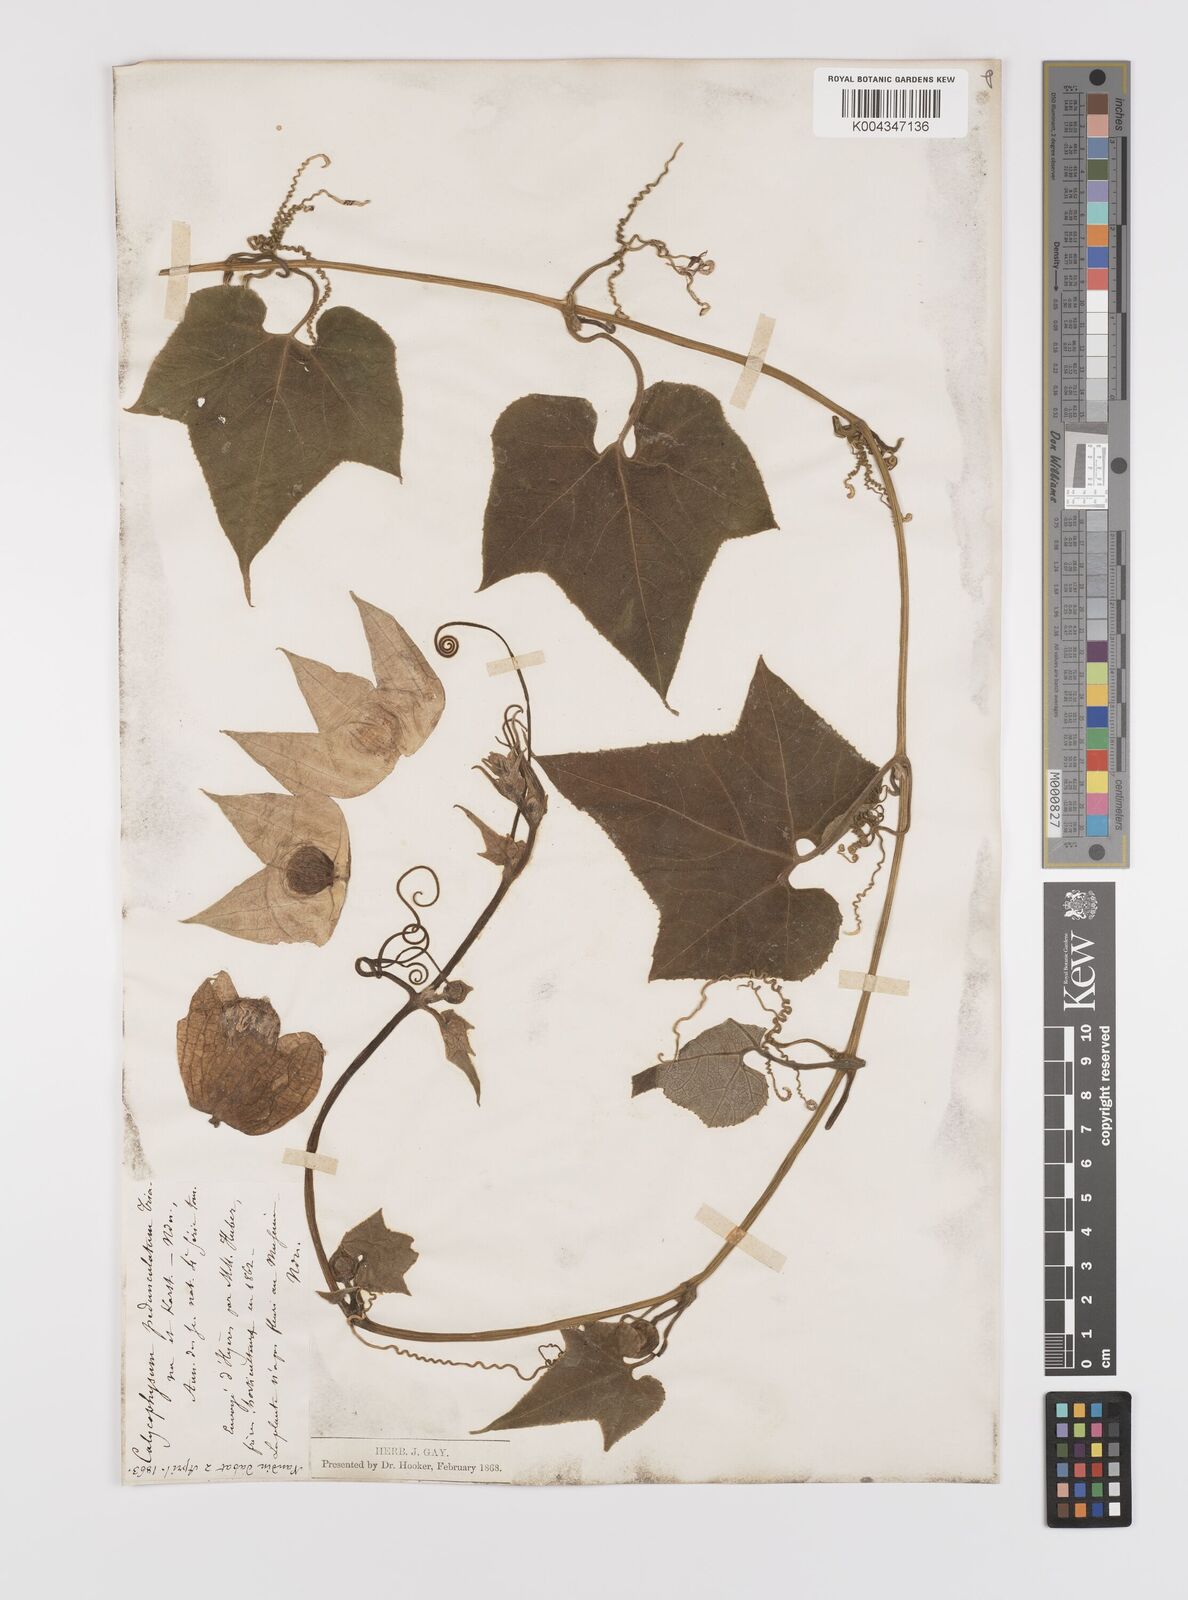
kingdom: Plantae
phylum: Tracheophyta
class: Magnoliopsida
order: Cucurbitales
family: Cucurbitaceae
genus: Calycophysum
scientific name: Calycophysum pedunculatum
